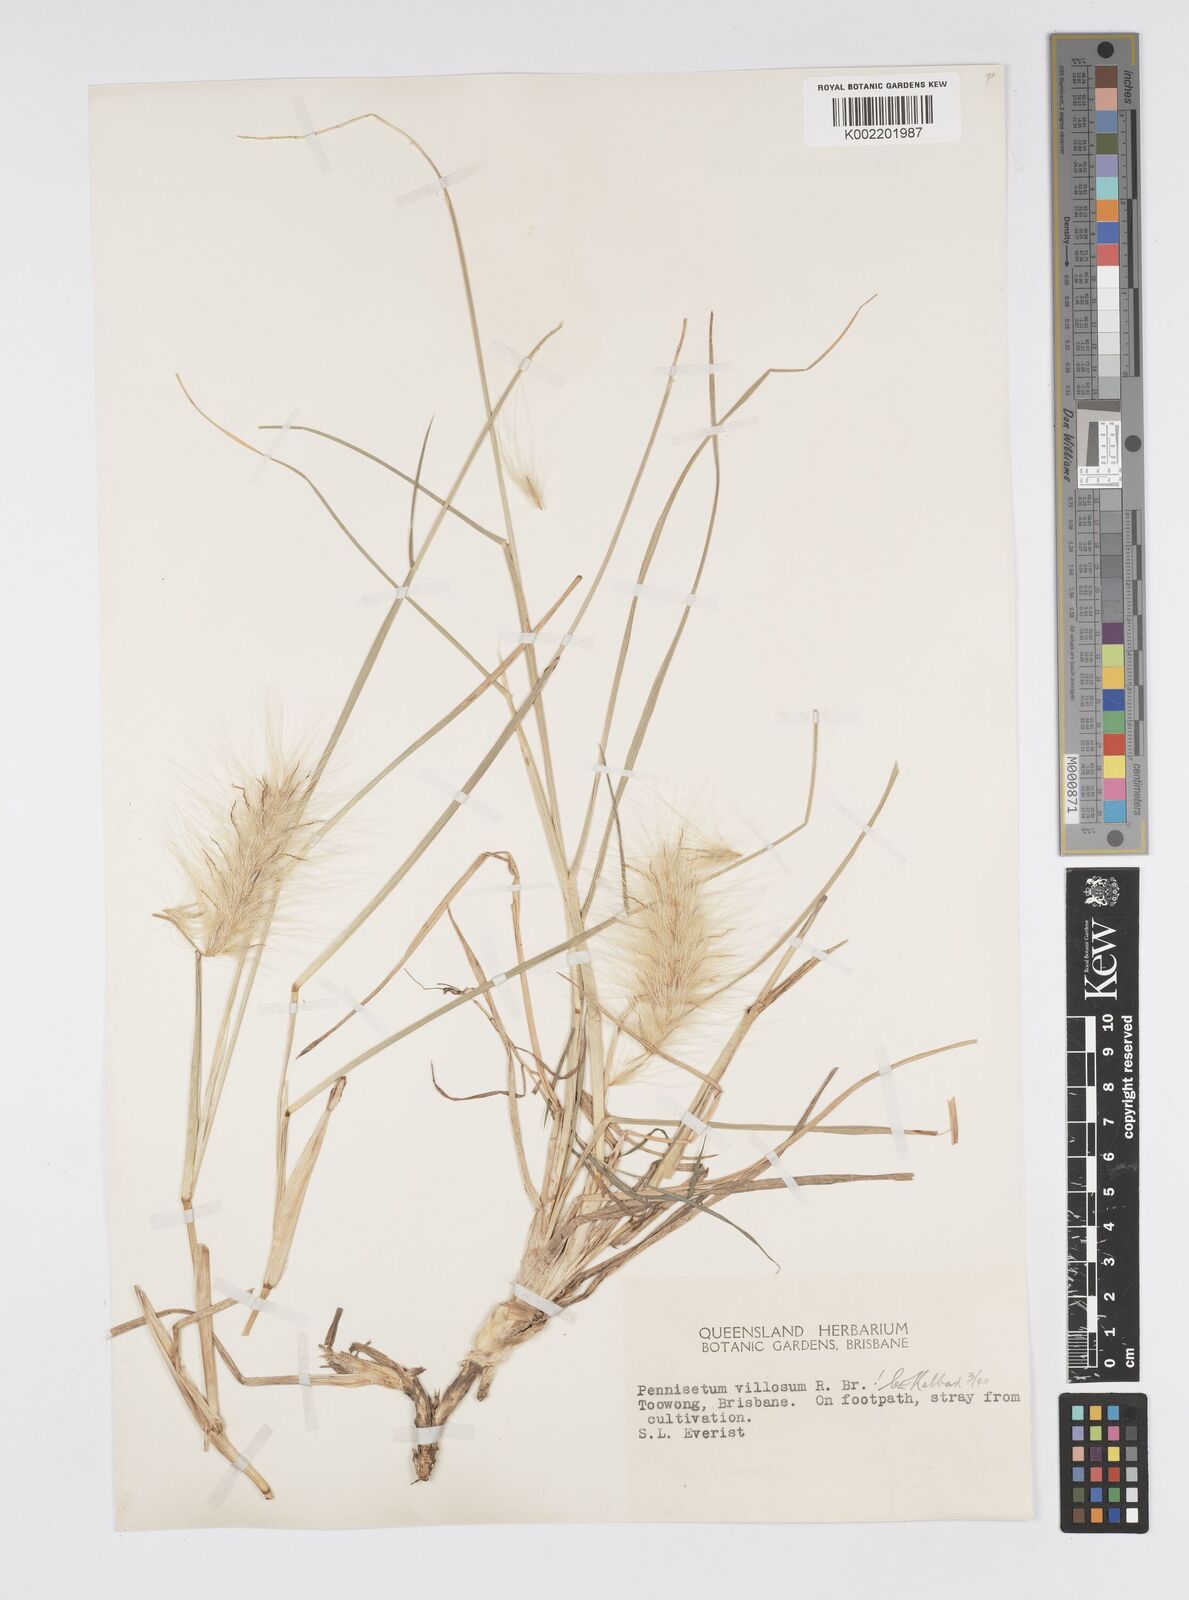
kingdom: Plantae
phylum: Tracheophyta
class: Liliopsida
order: Poales
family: Poaceae
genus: Cenchrus
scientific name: Cenchrus longisetus
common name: Feathertop
